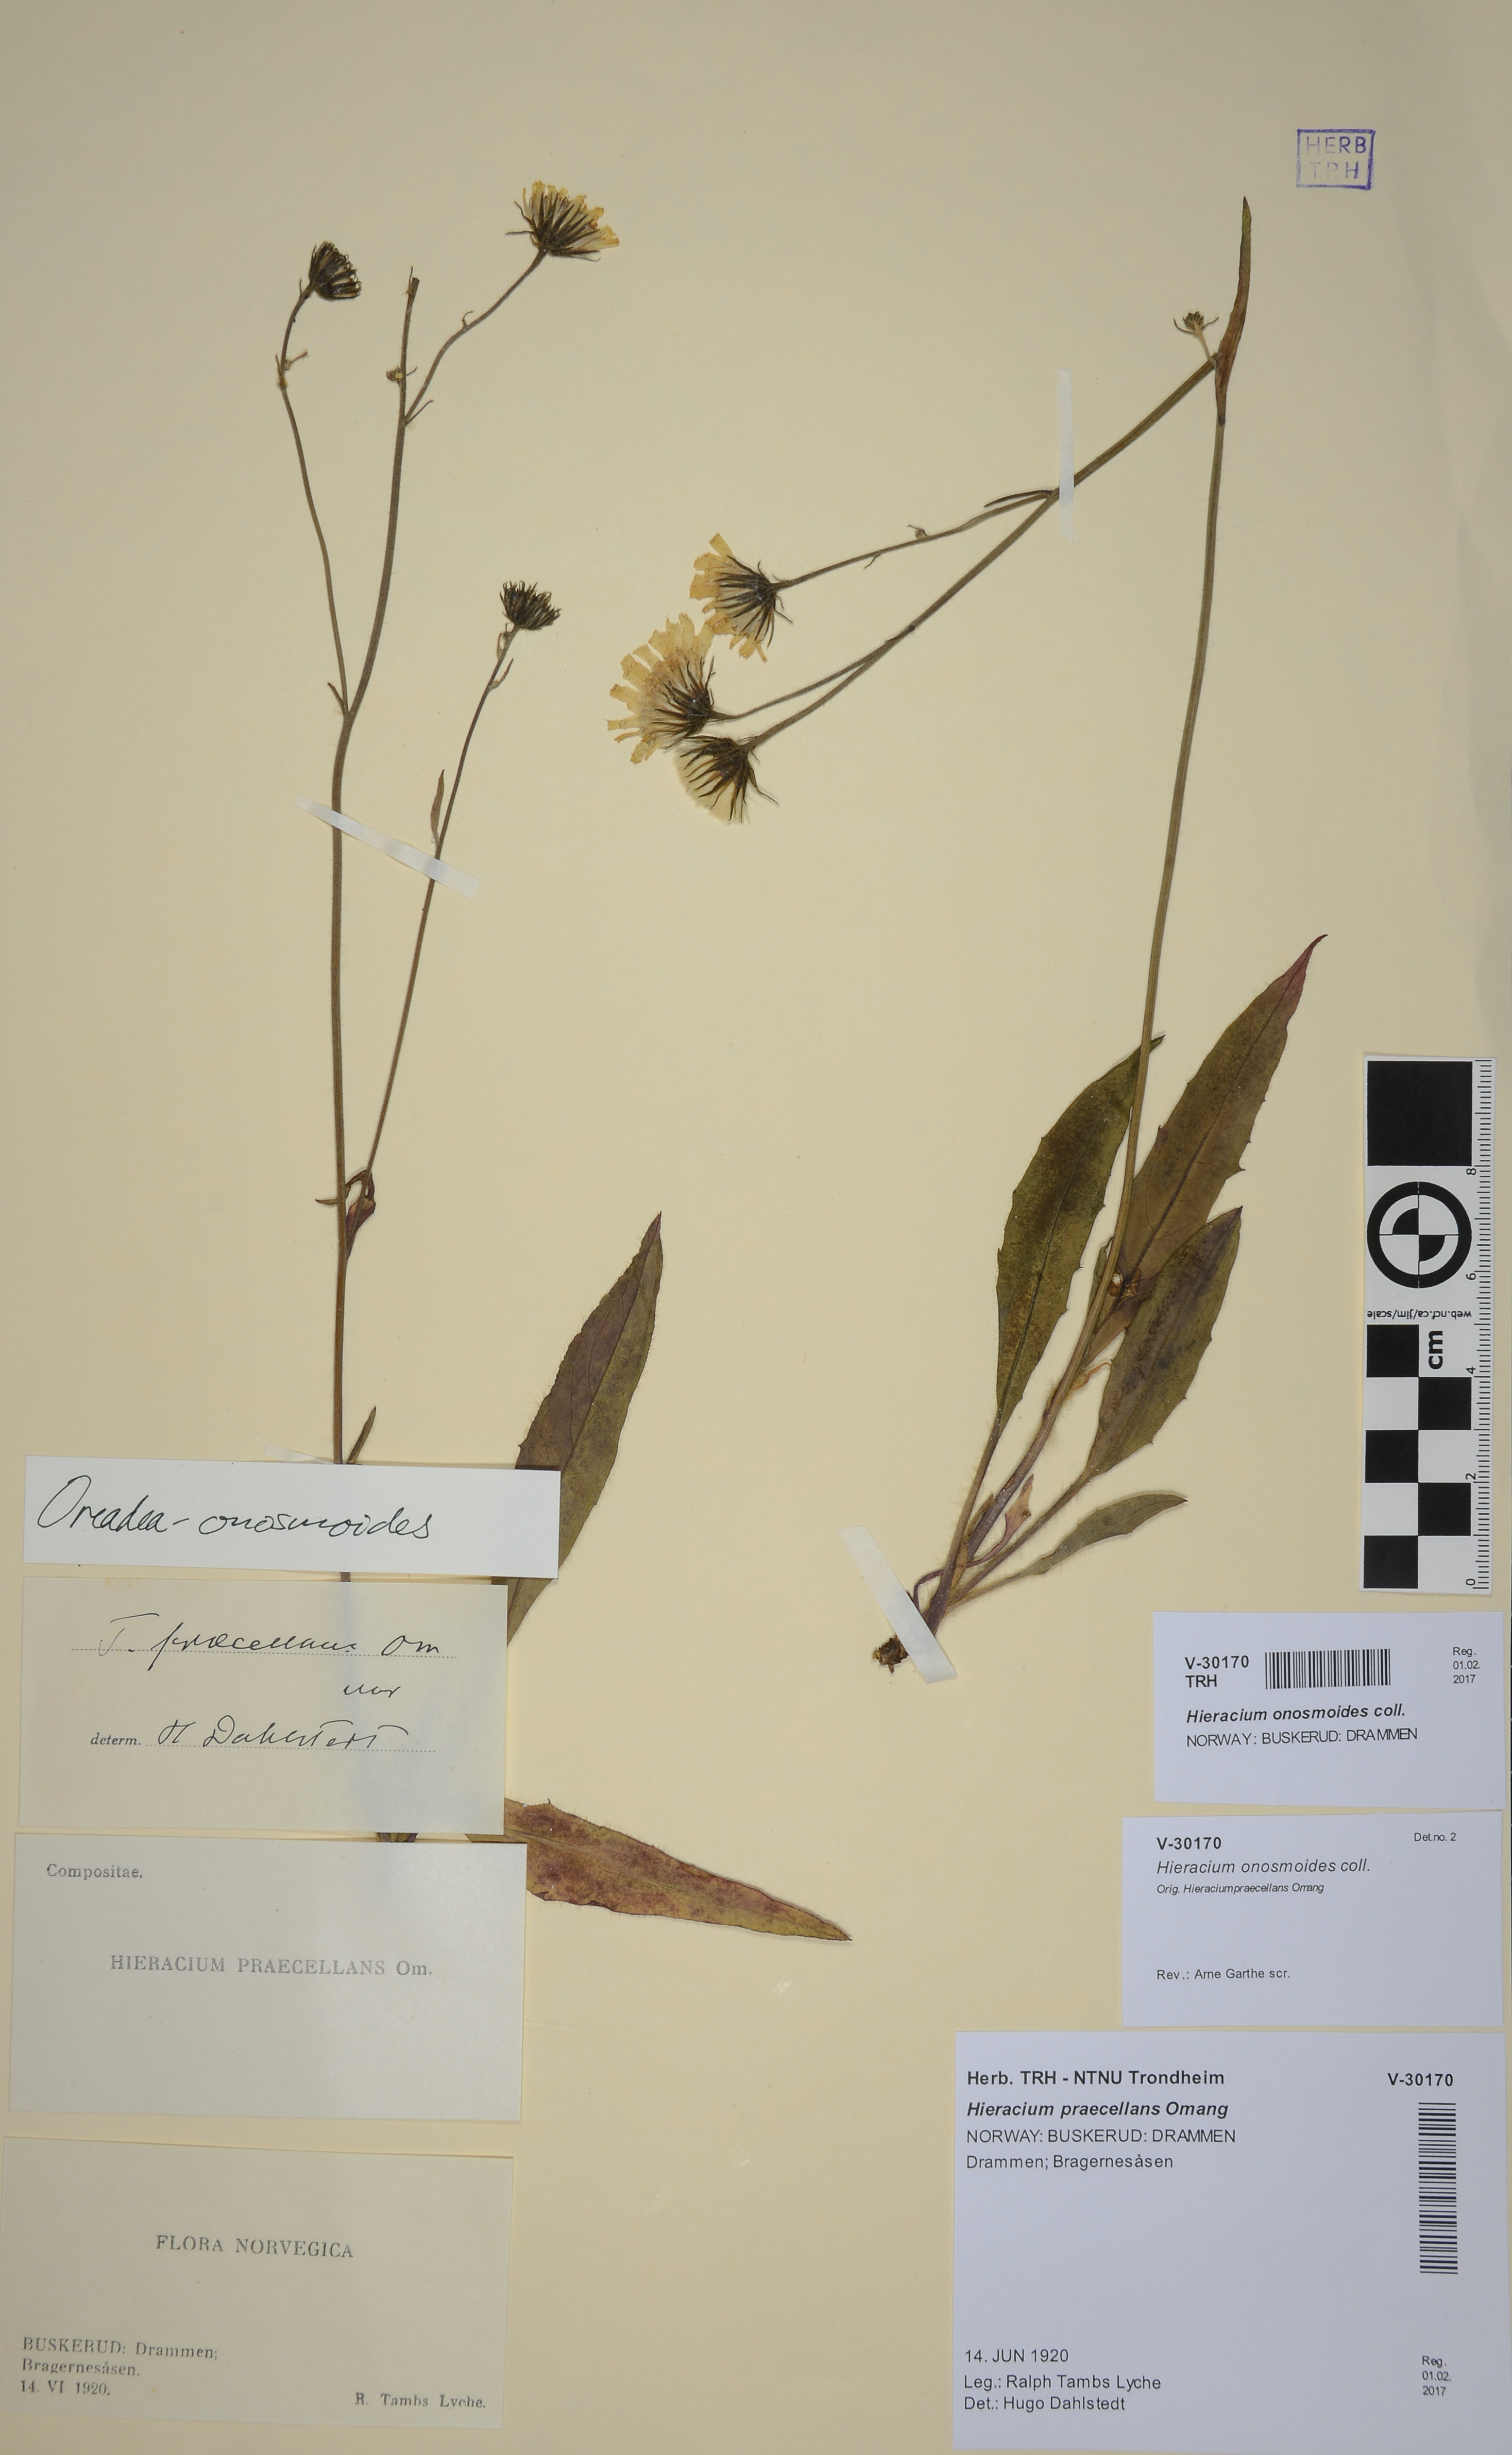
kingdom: Plantae
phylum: Tracheophyta
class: Magnoliopsida
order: Asterales
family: Asteraceae
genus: Hieracium
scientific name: Hieracium onosmoides
